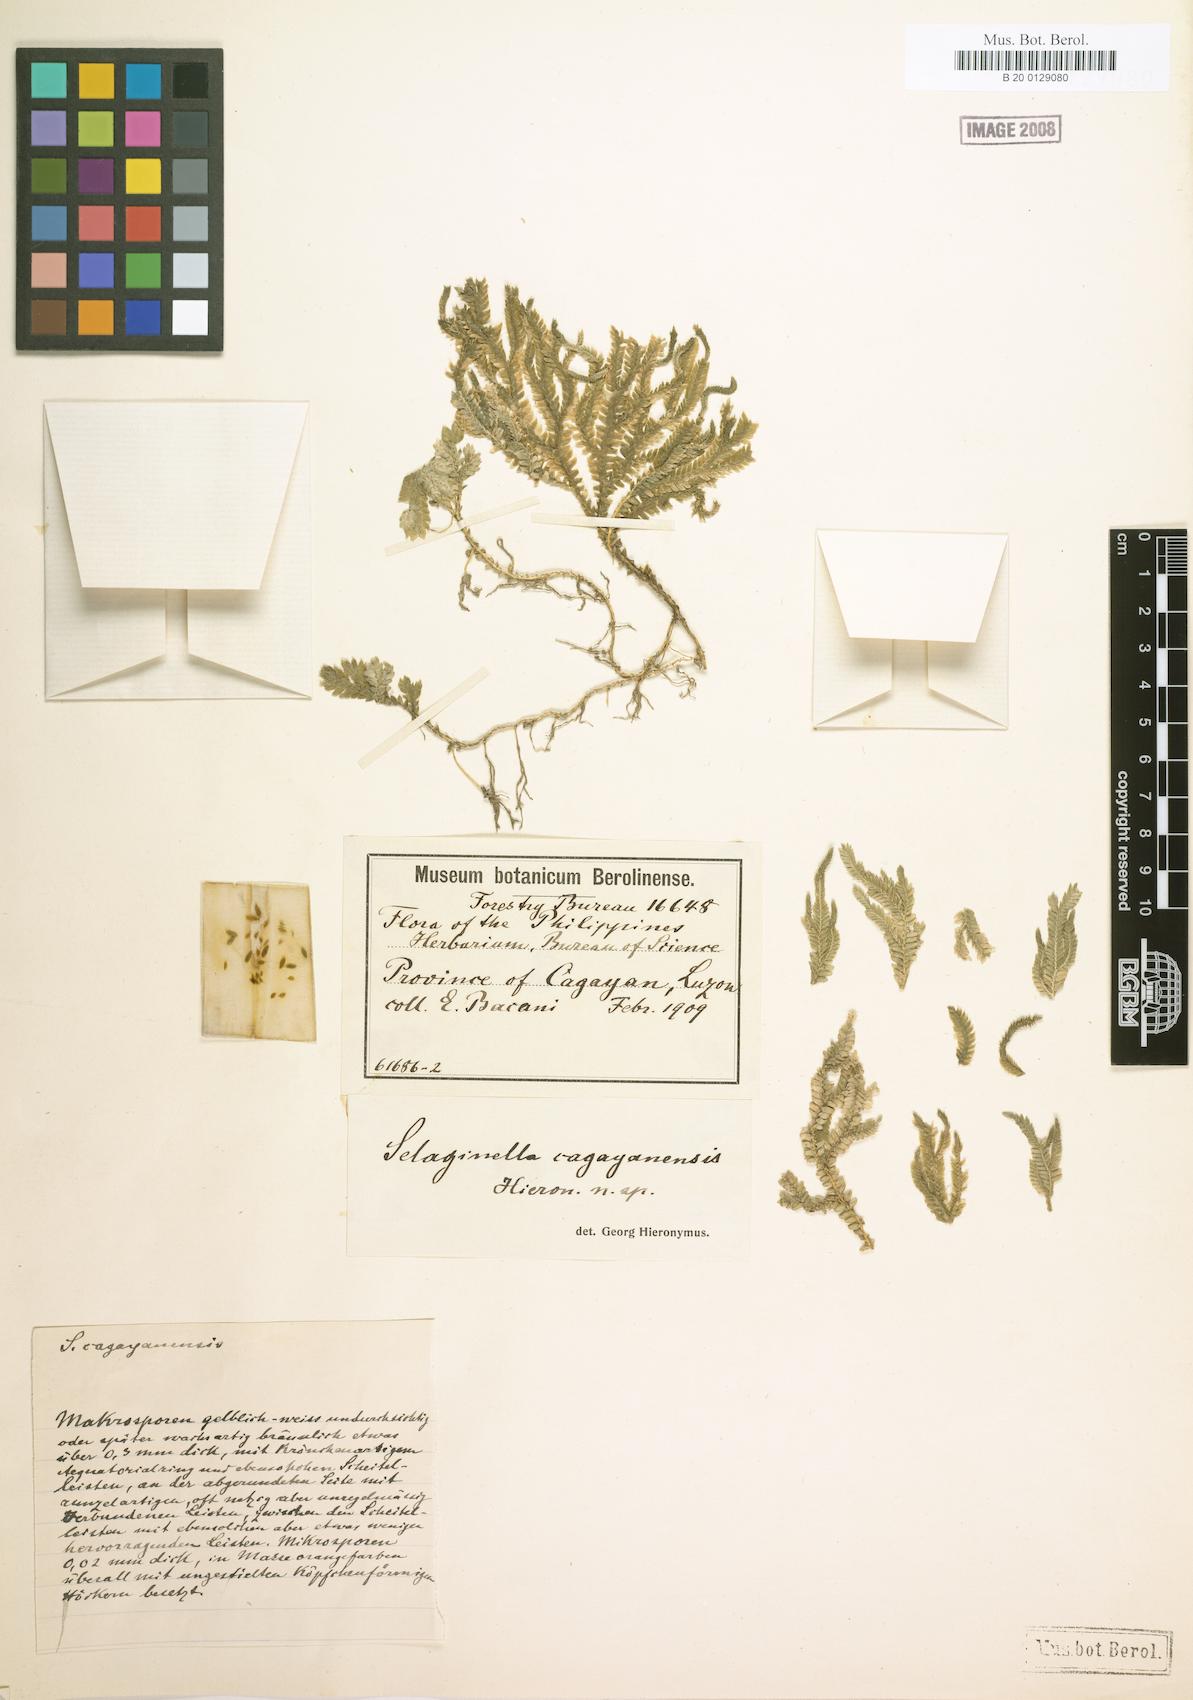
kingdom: Plantae
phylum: Tracheophyta
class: Lycopodiopsida
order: Selaginellales
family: Selaginellaceae
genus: Selaginella
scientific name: Selaginella auriculata
